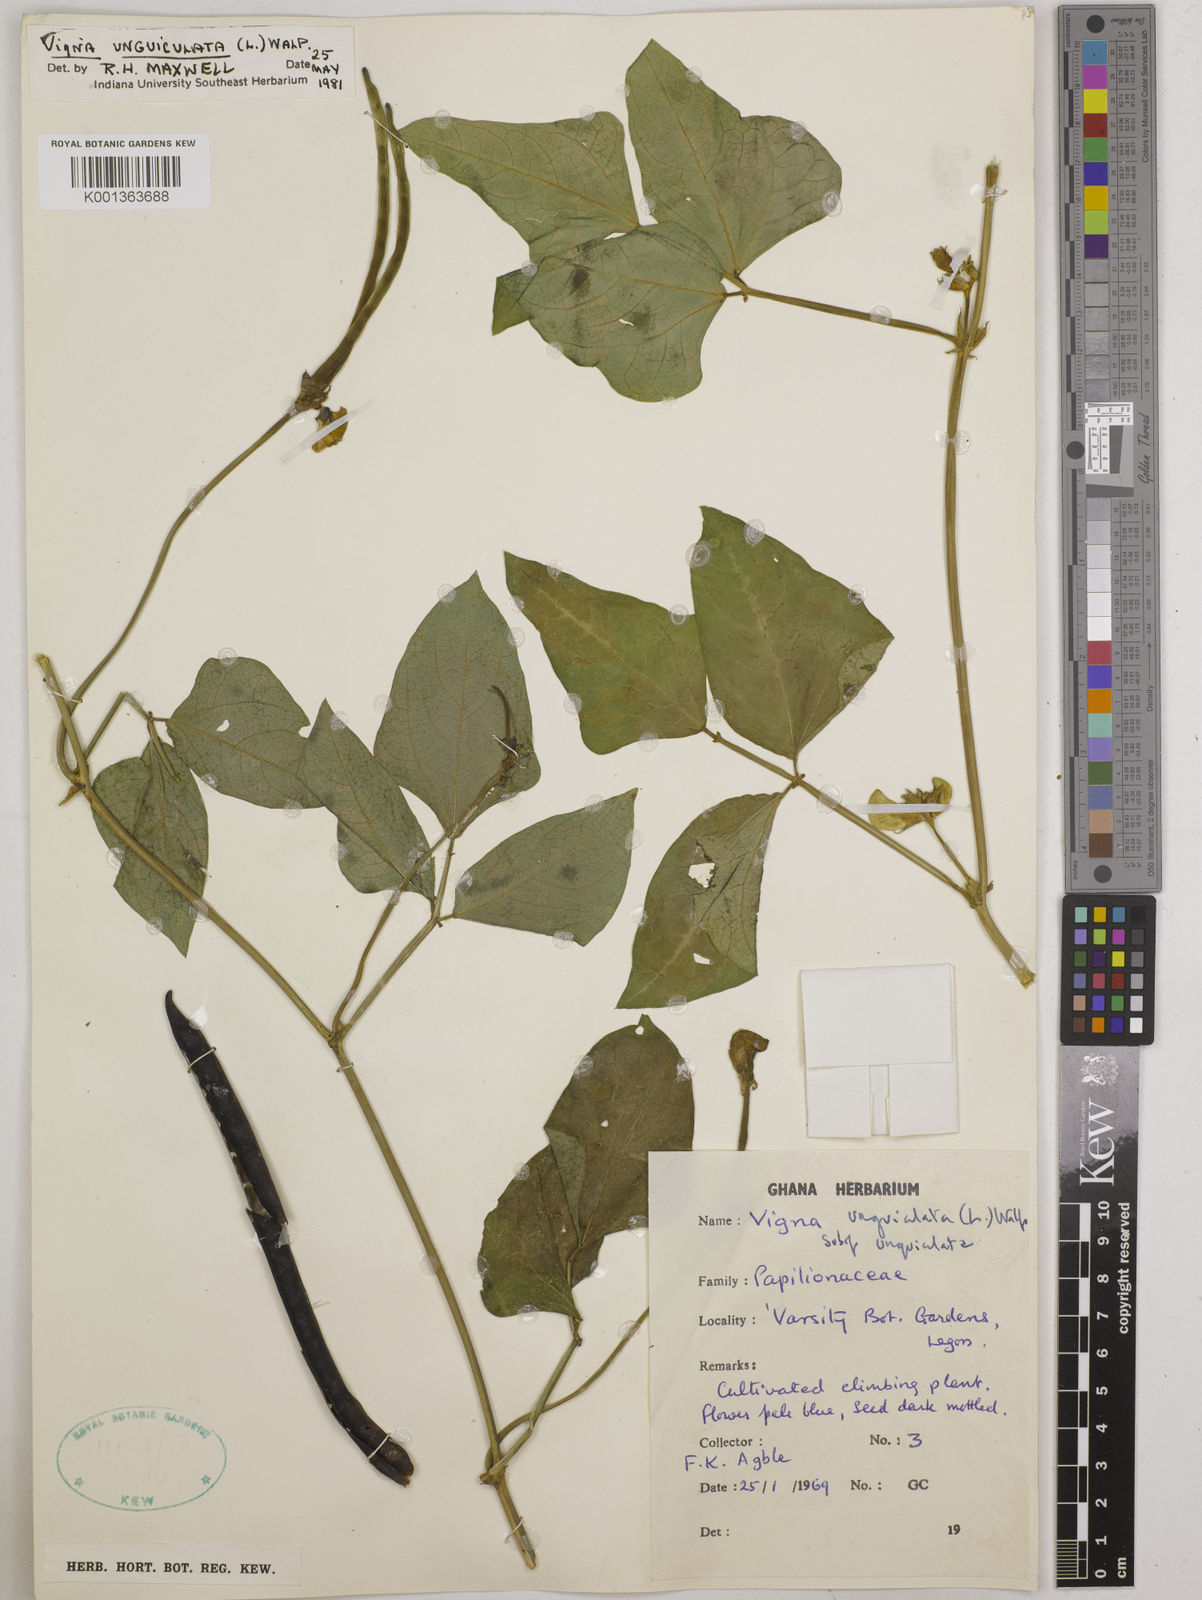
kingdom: Plantae
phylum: Tracheophyta
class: Magnoliopsida
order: Fabales
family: Fabaceae
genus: Vigna
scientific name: Vigna unguiculata
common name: Cowpea
